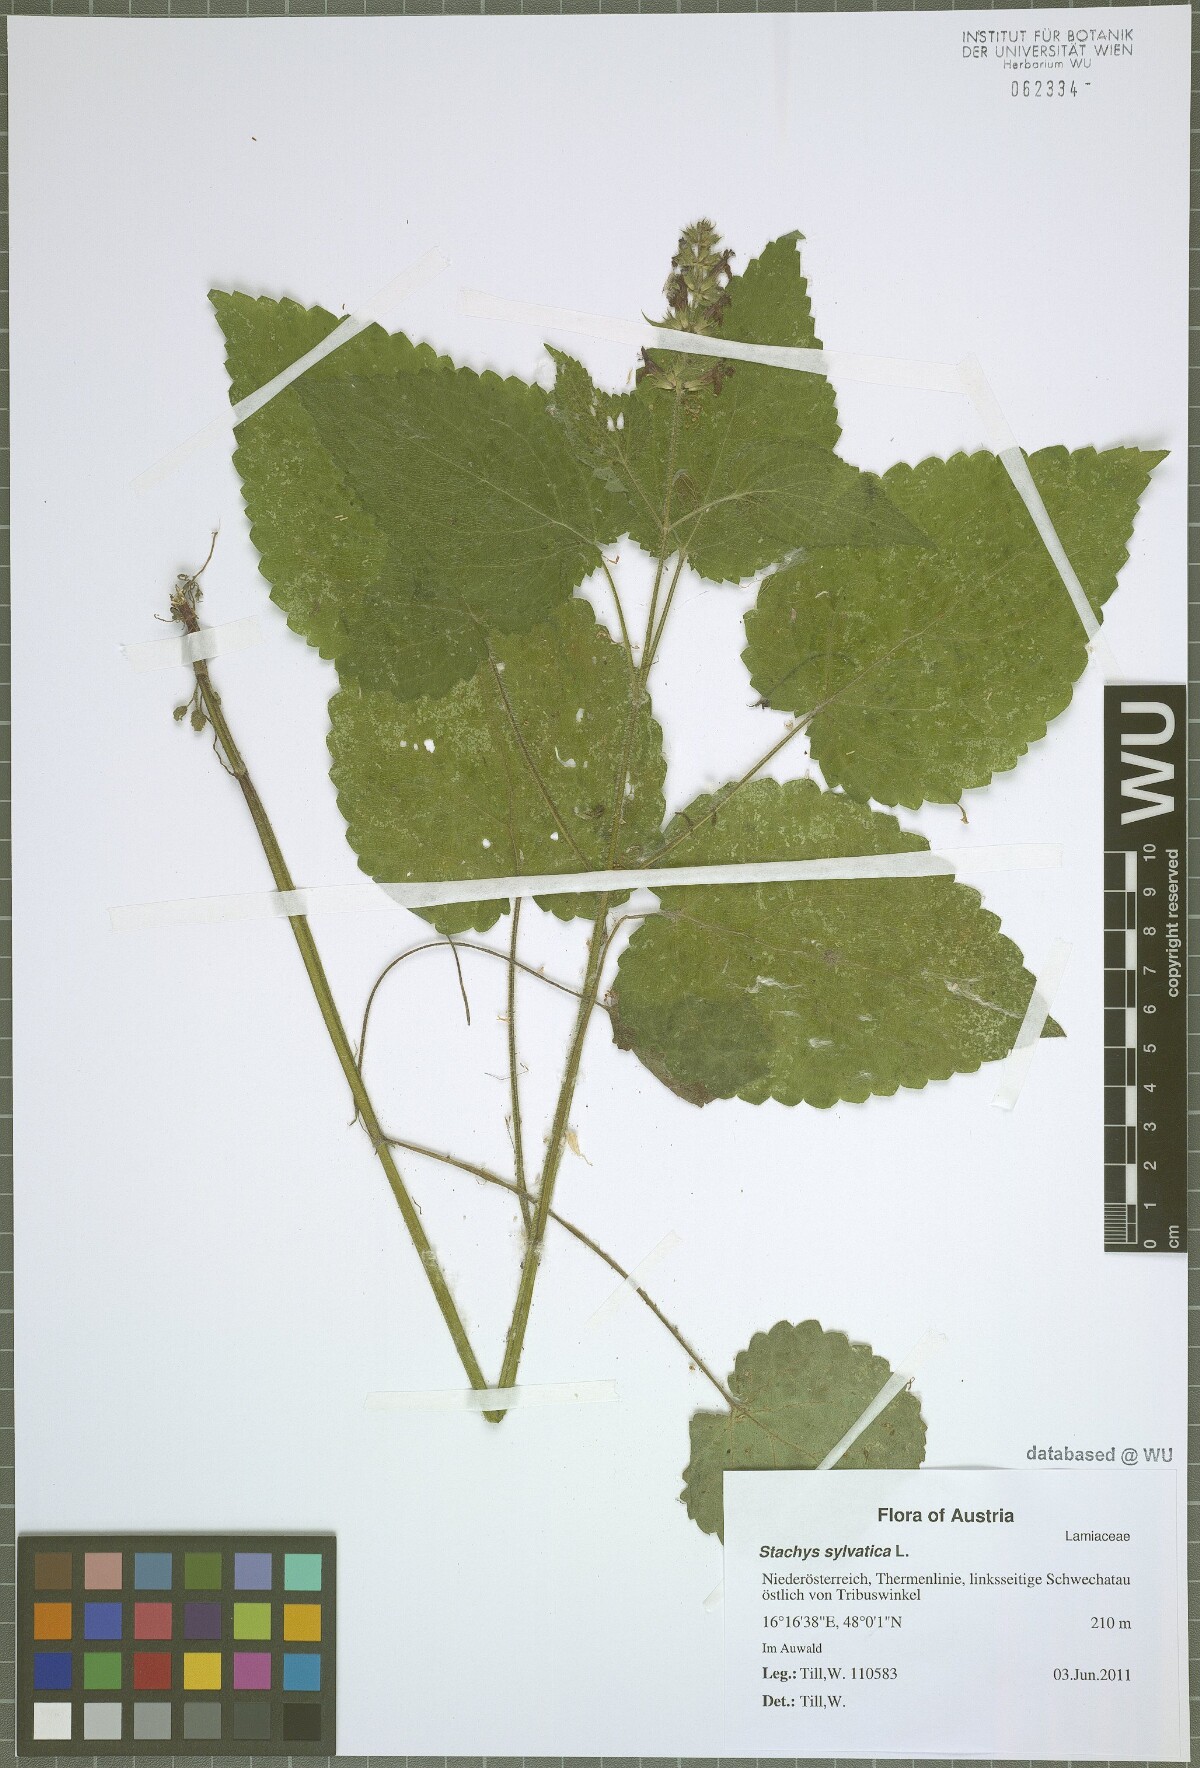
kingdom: Plantae
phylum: Tracheophyta
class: Magnoliopsida
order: Lamiales
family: Lamiaceae
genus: Stachys
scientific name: Stachys sylvatica
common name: Hedge woundwort
